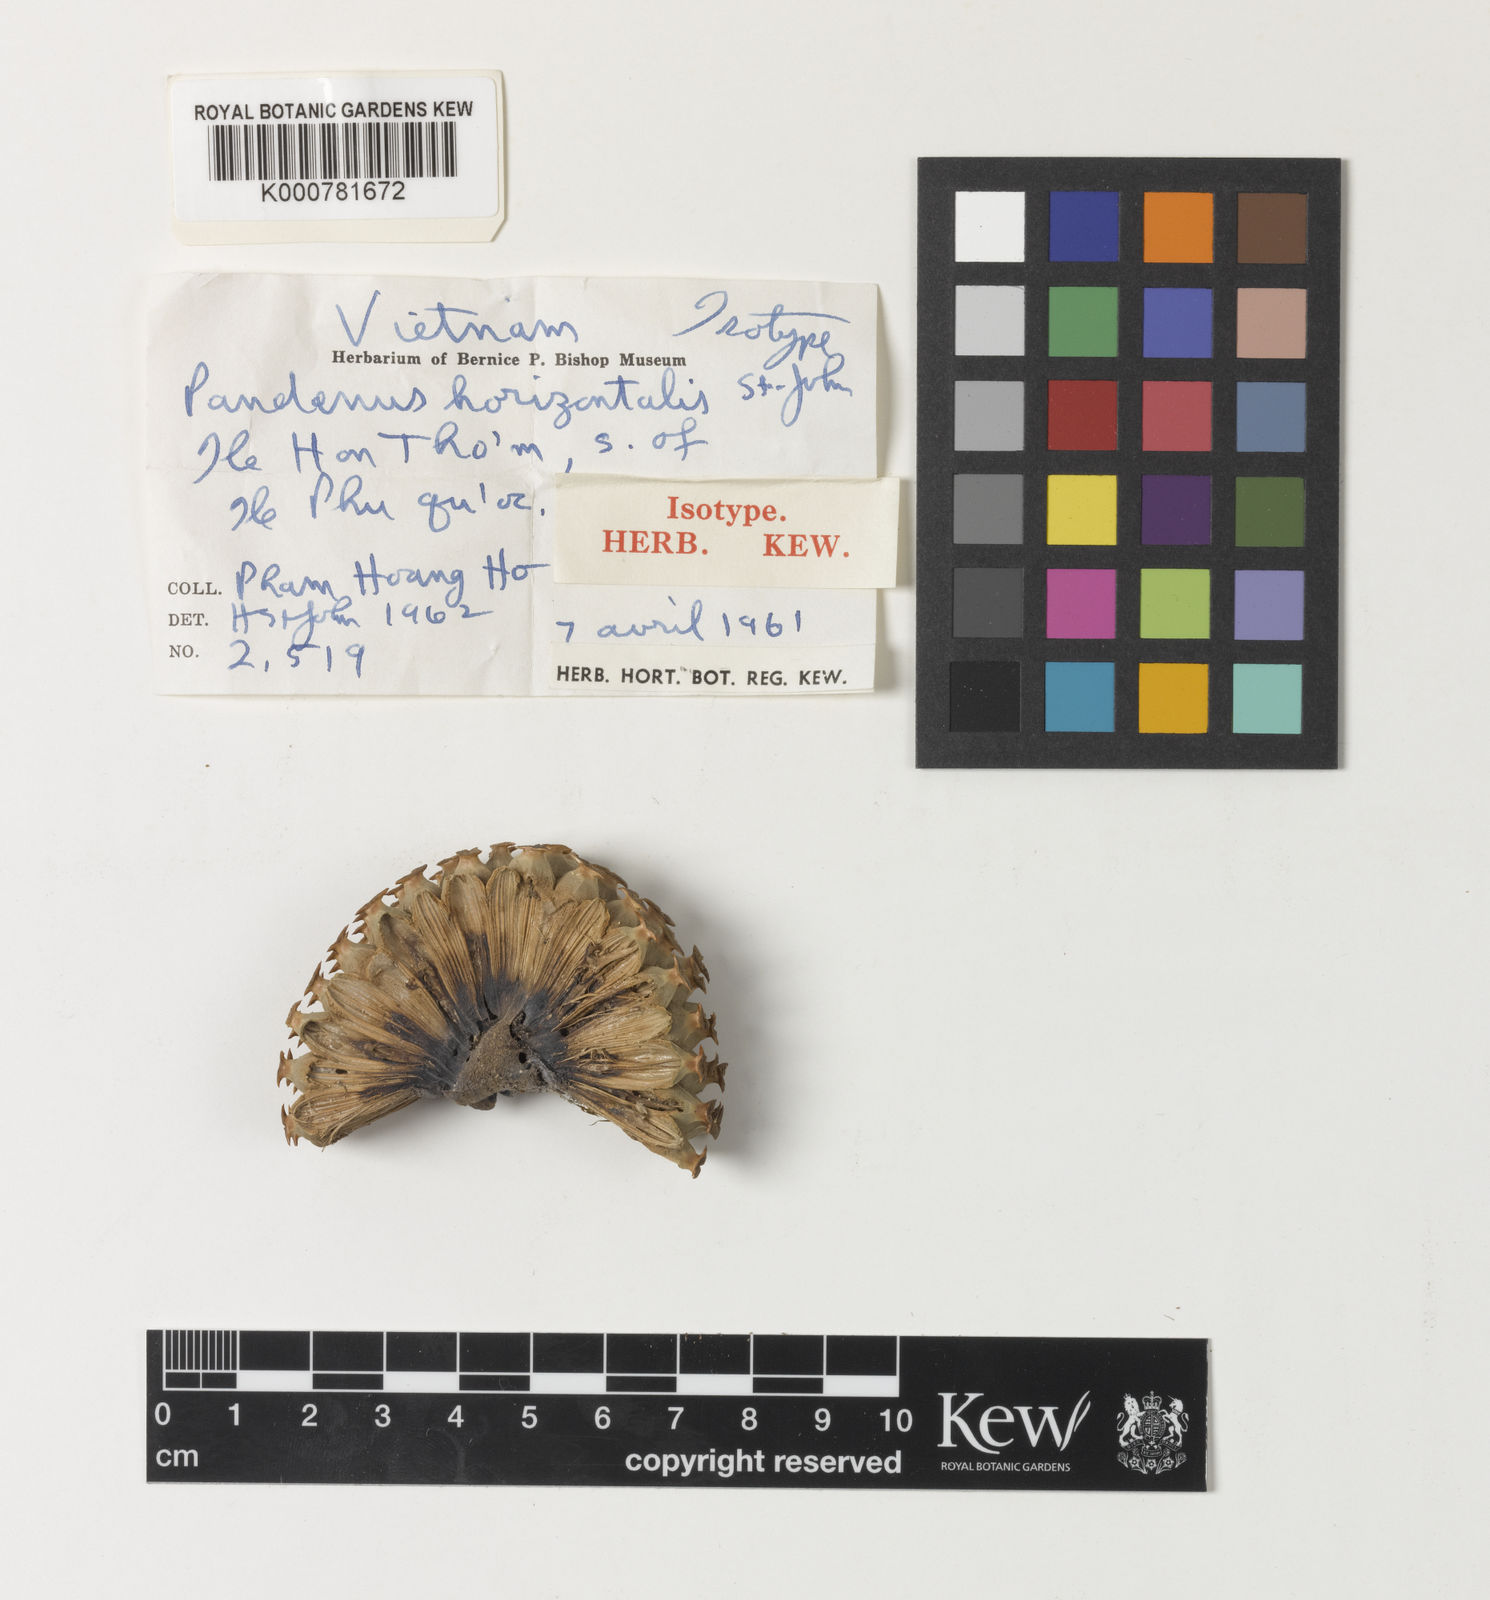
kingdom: Plantae
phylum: Tracheophyta
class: Liliopsida
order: Pandanales
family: Pandanaceae
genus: Pandanus
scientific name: Pandanus horizontalis
